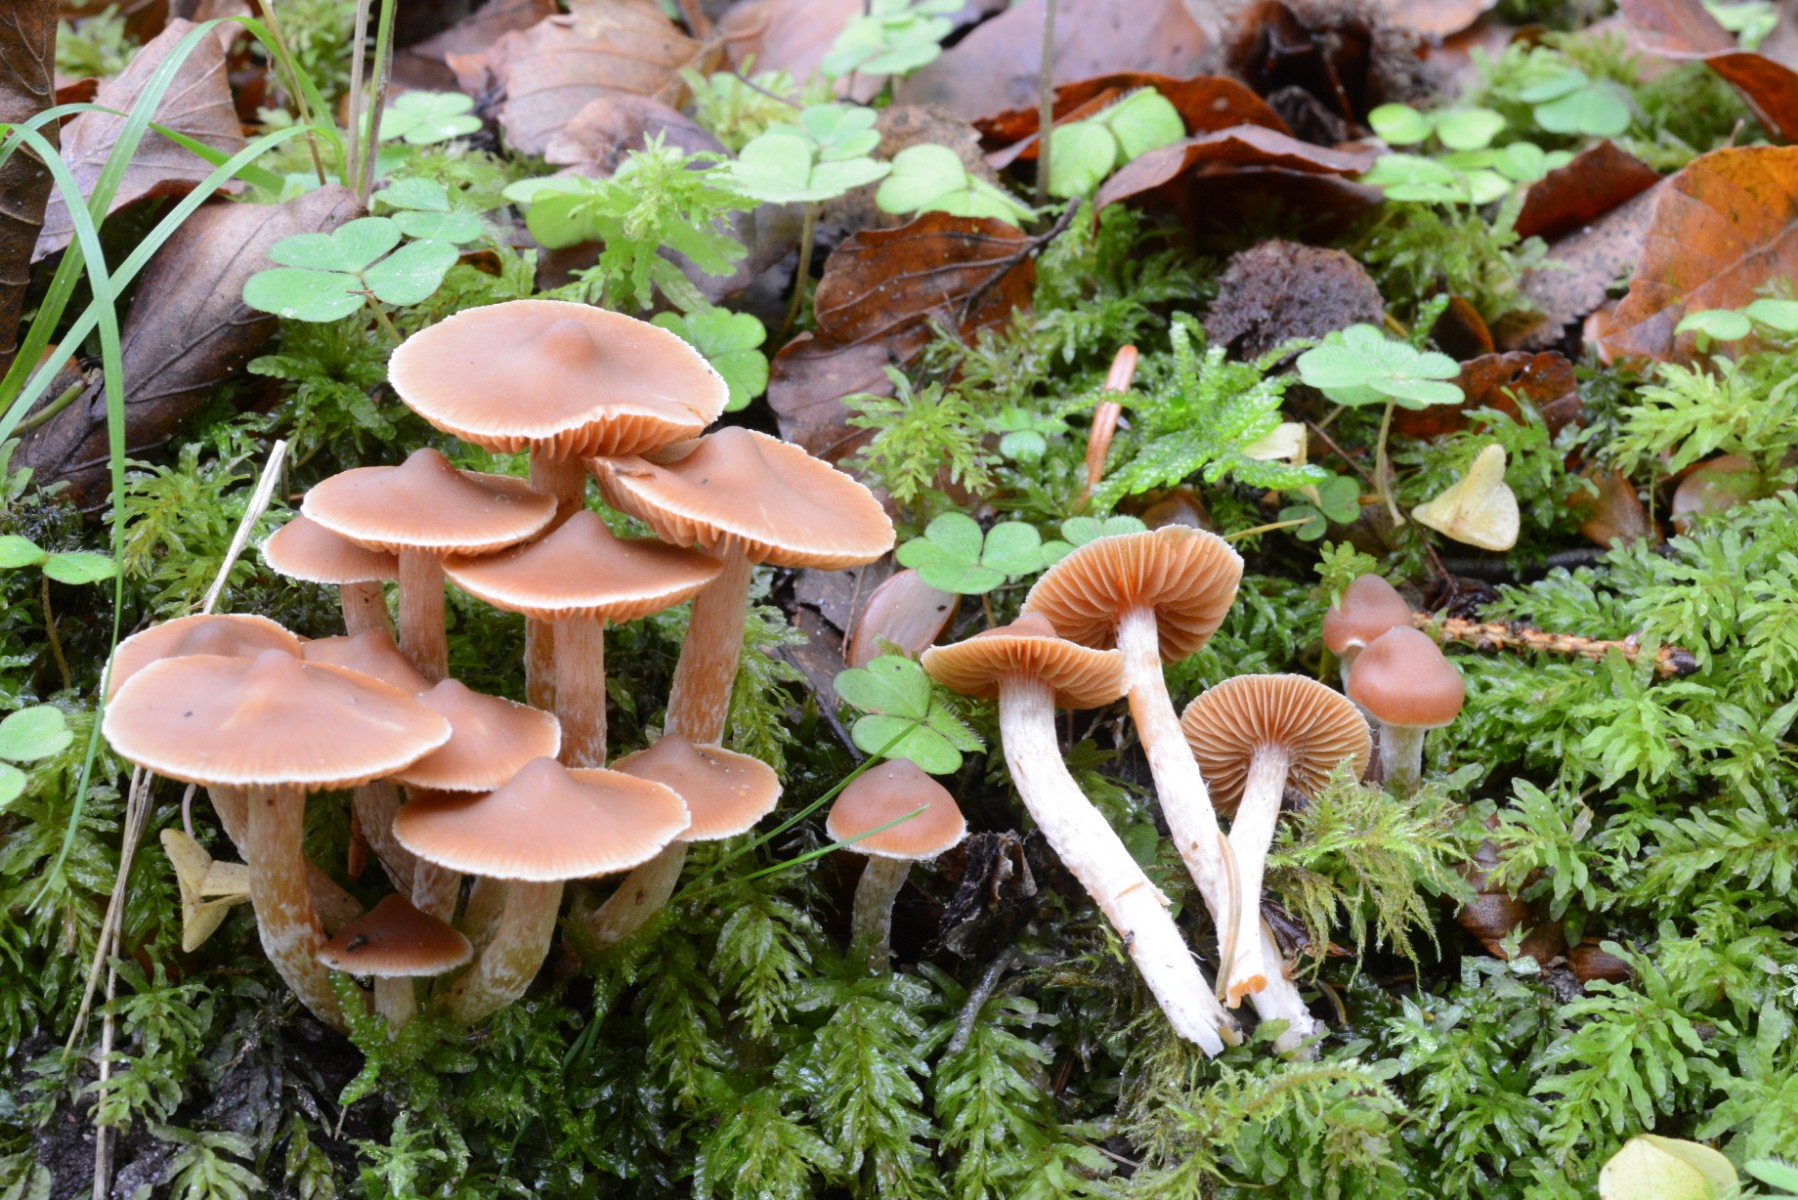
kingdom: Fungi
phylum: Basidiomycota
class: Agaricomycetes
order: Agaricales
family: Cortinariaceae
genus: Cortinarius
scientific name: Cortinarius
